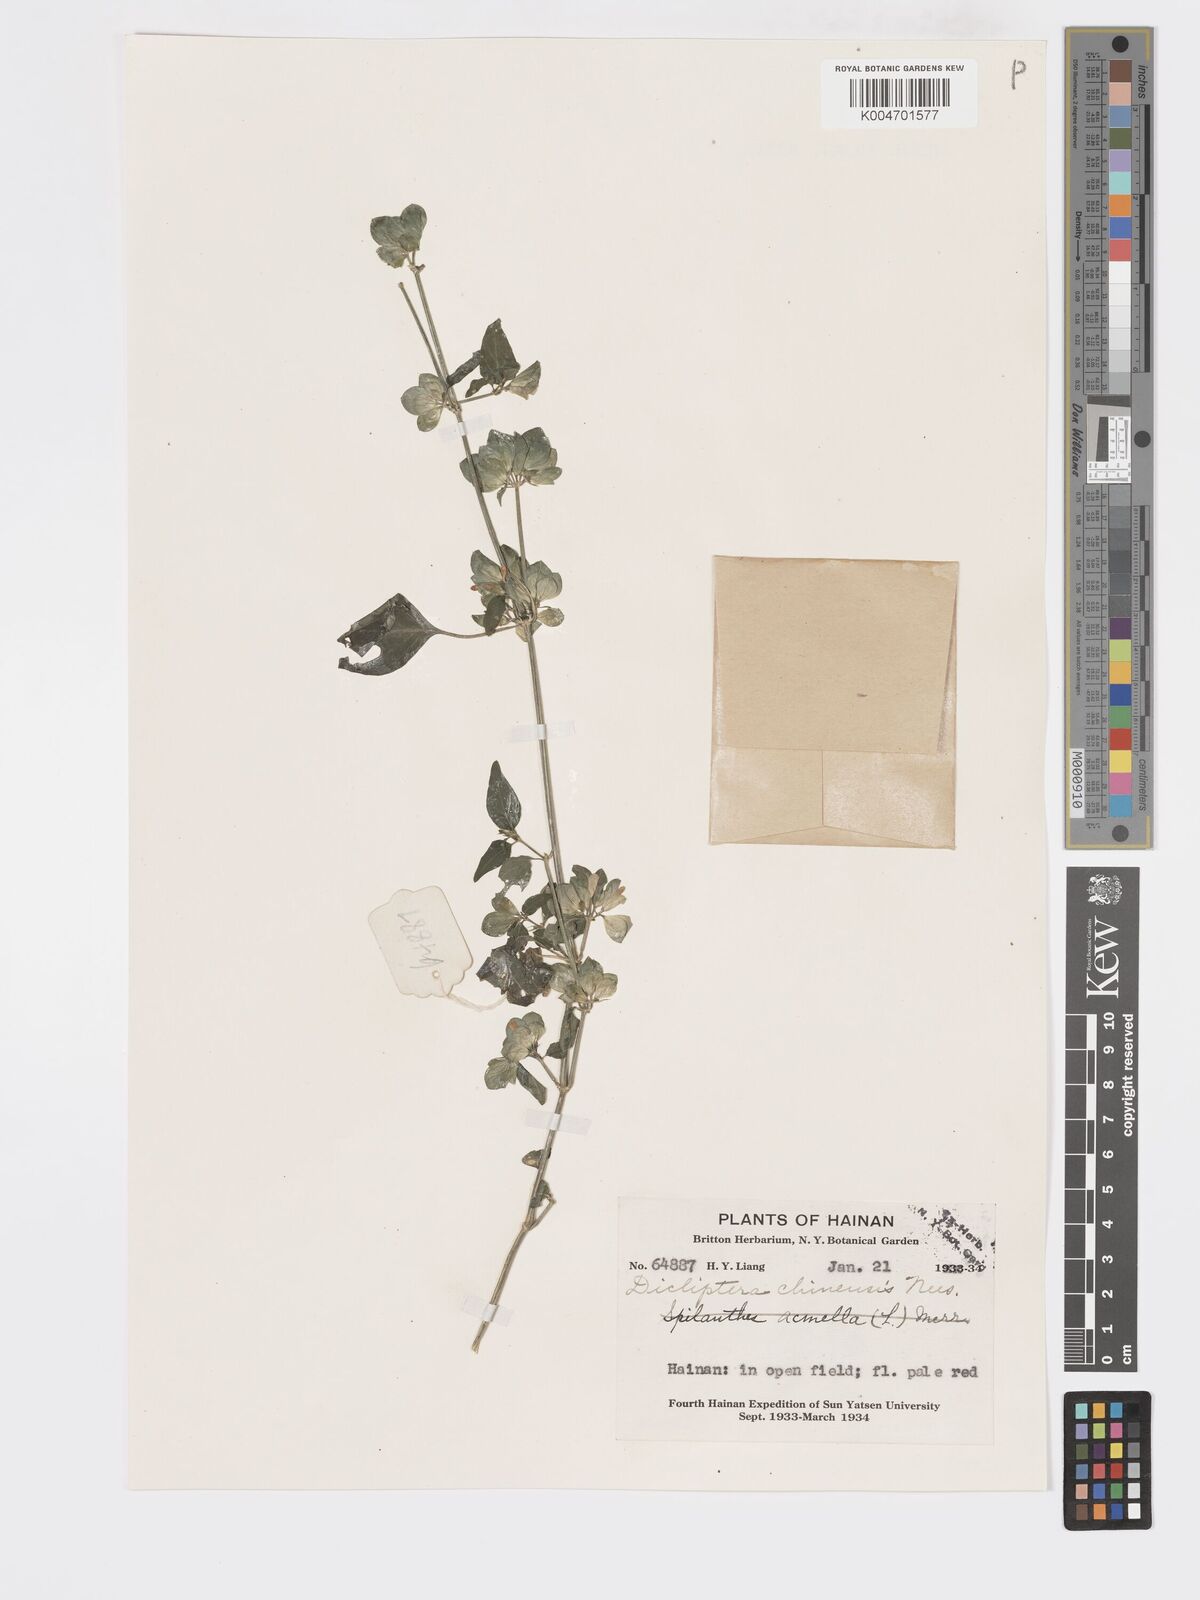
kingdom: Plantae
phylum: Tracheophyta
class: Magnoliopsida
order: Lamiales
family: Acanthaceae
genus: Dicliptera
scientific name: Dicliptera chinensis
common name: Chinese foldwing
